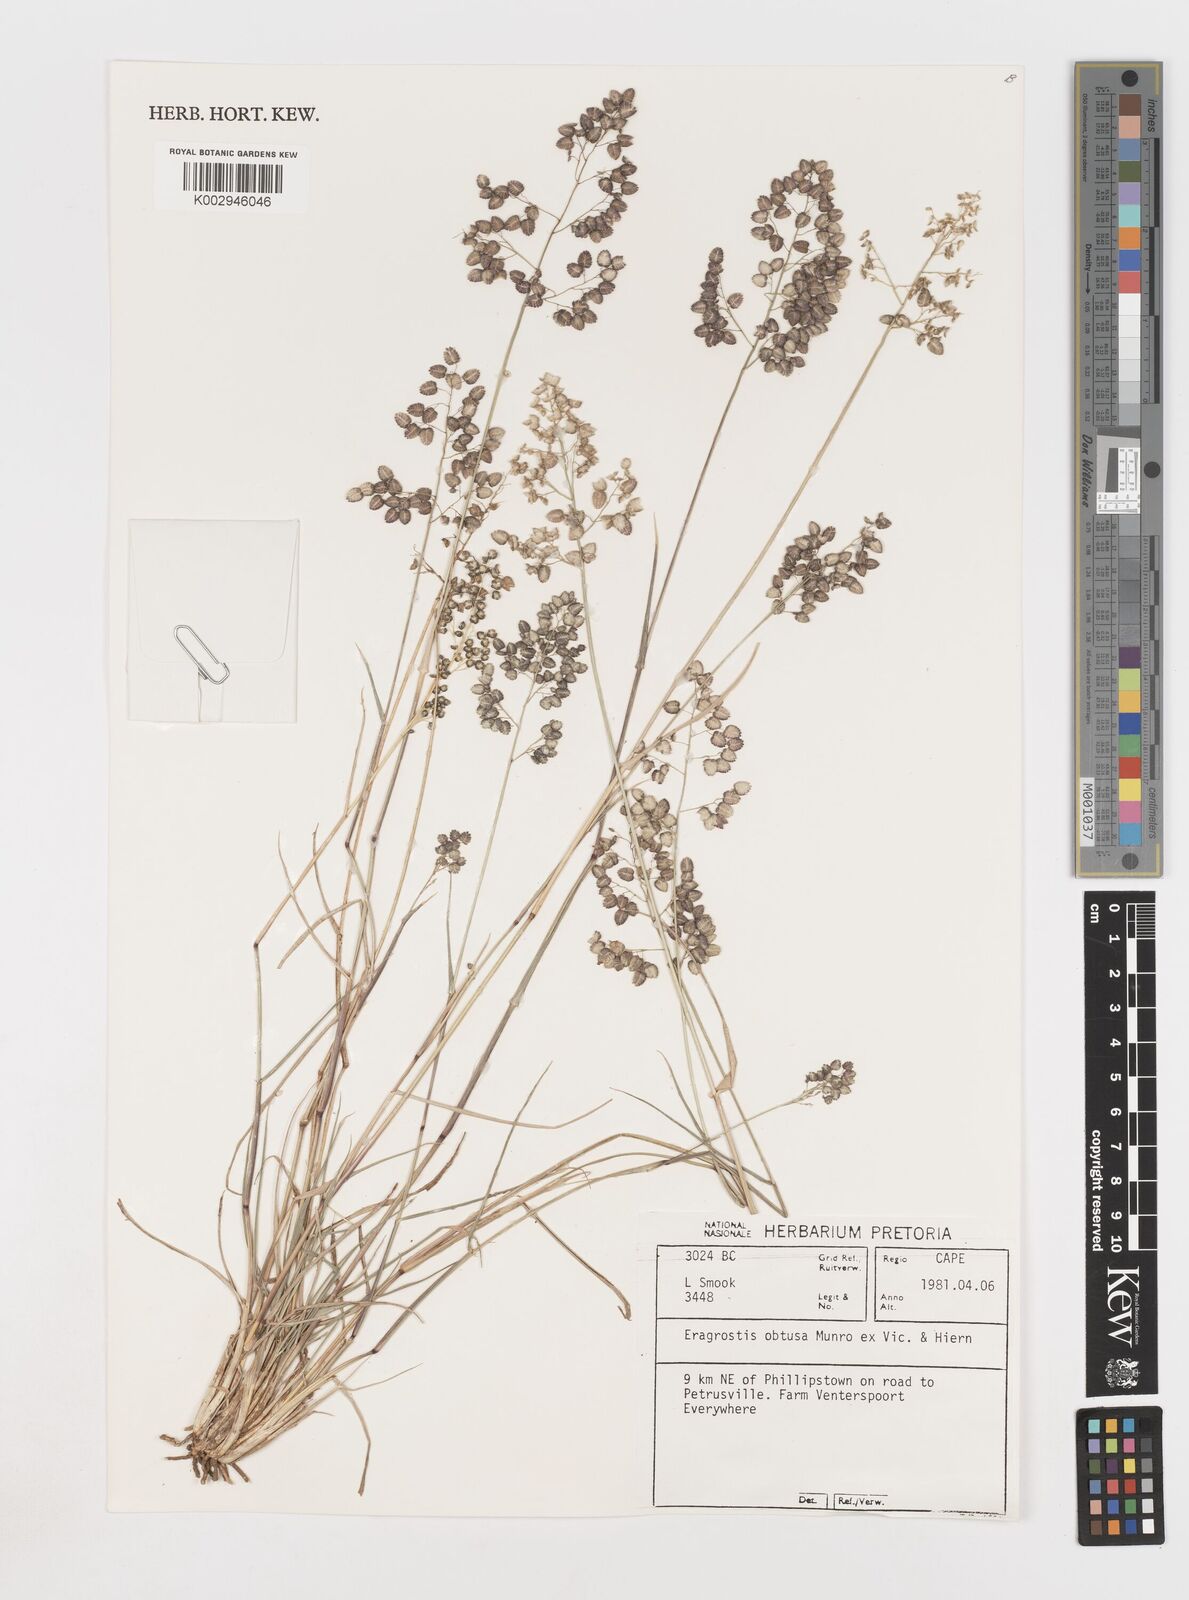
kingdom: Plantae
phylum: Tracheophyta
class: Liliopsida
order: Poales
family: Poaceae
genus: Eragrostis
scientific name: Eragrostis obtusa
